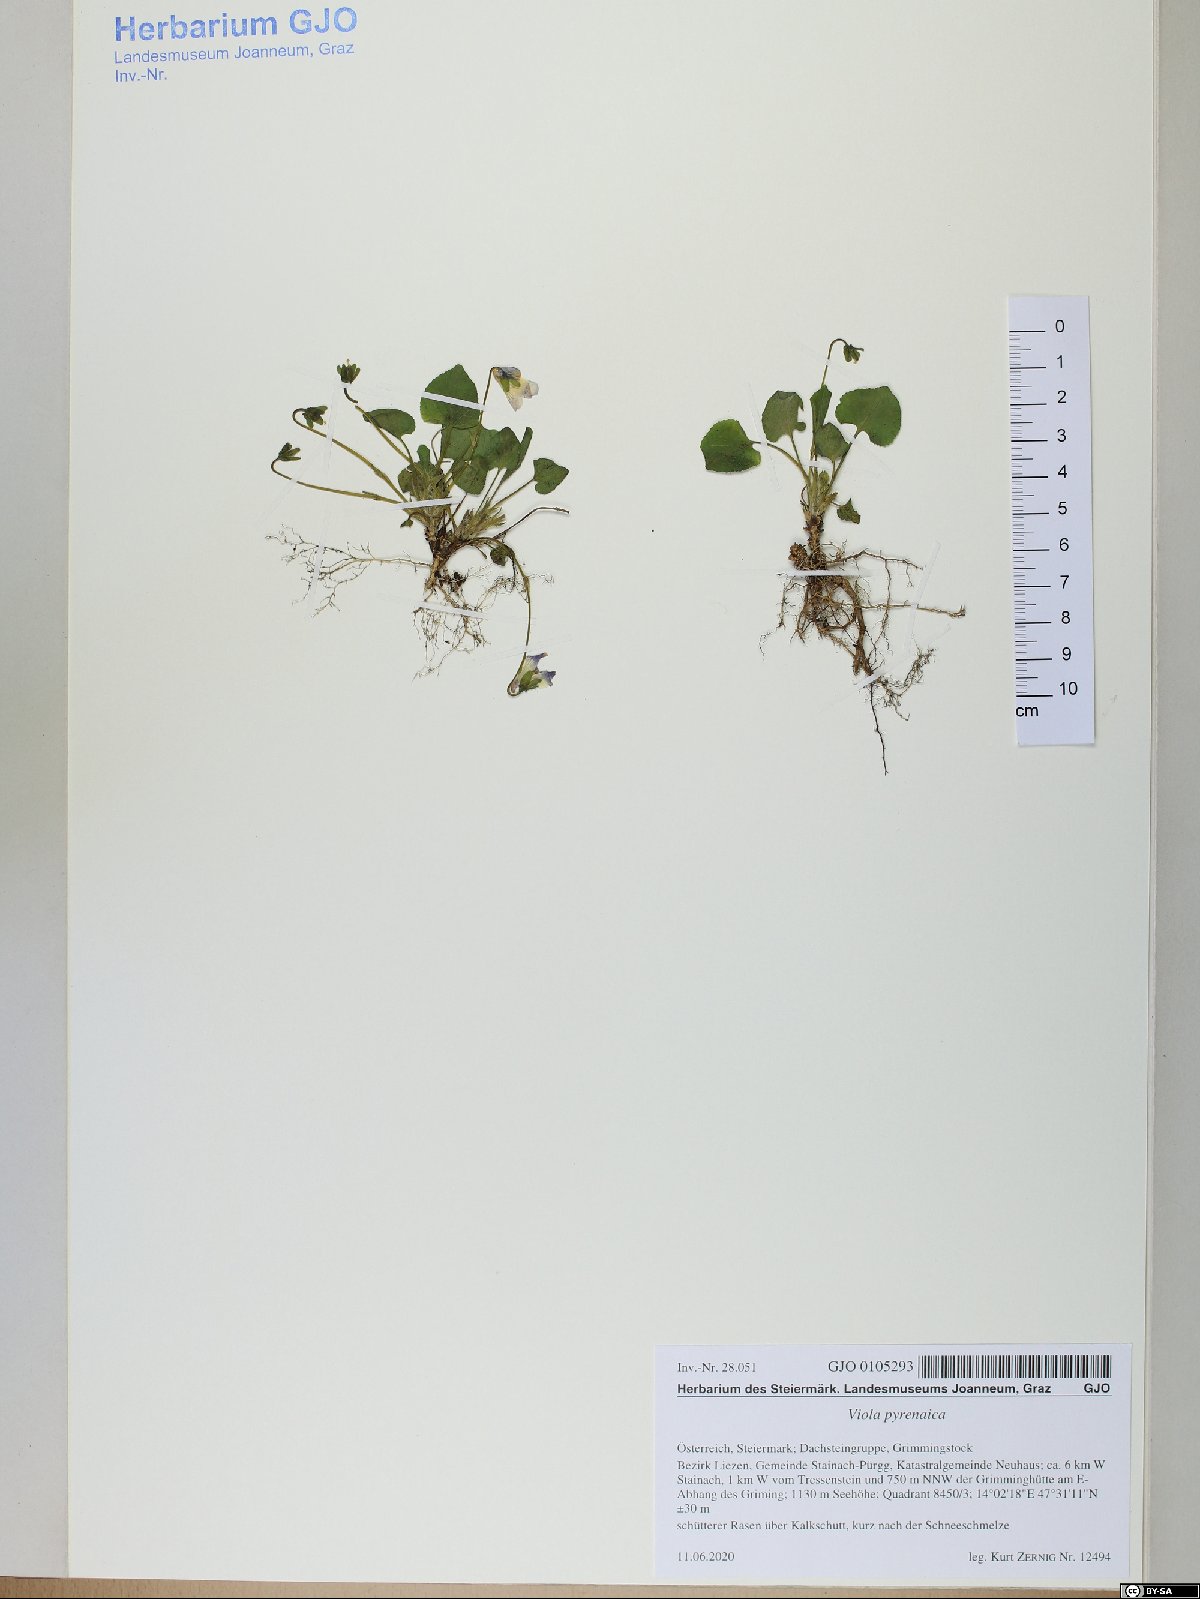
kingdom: Plantae
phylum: Tracheophyta
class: Magnoliopsida
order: Malpighiales
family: Violaceae
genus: Viola
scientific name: Viola pyrenaica
